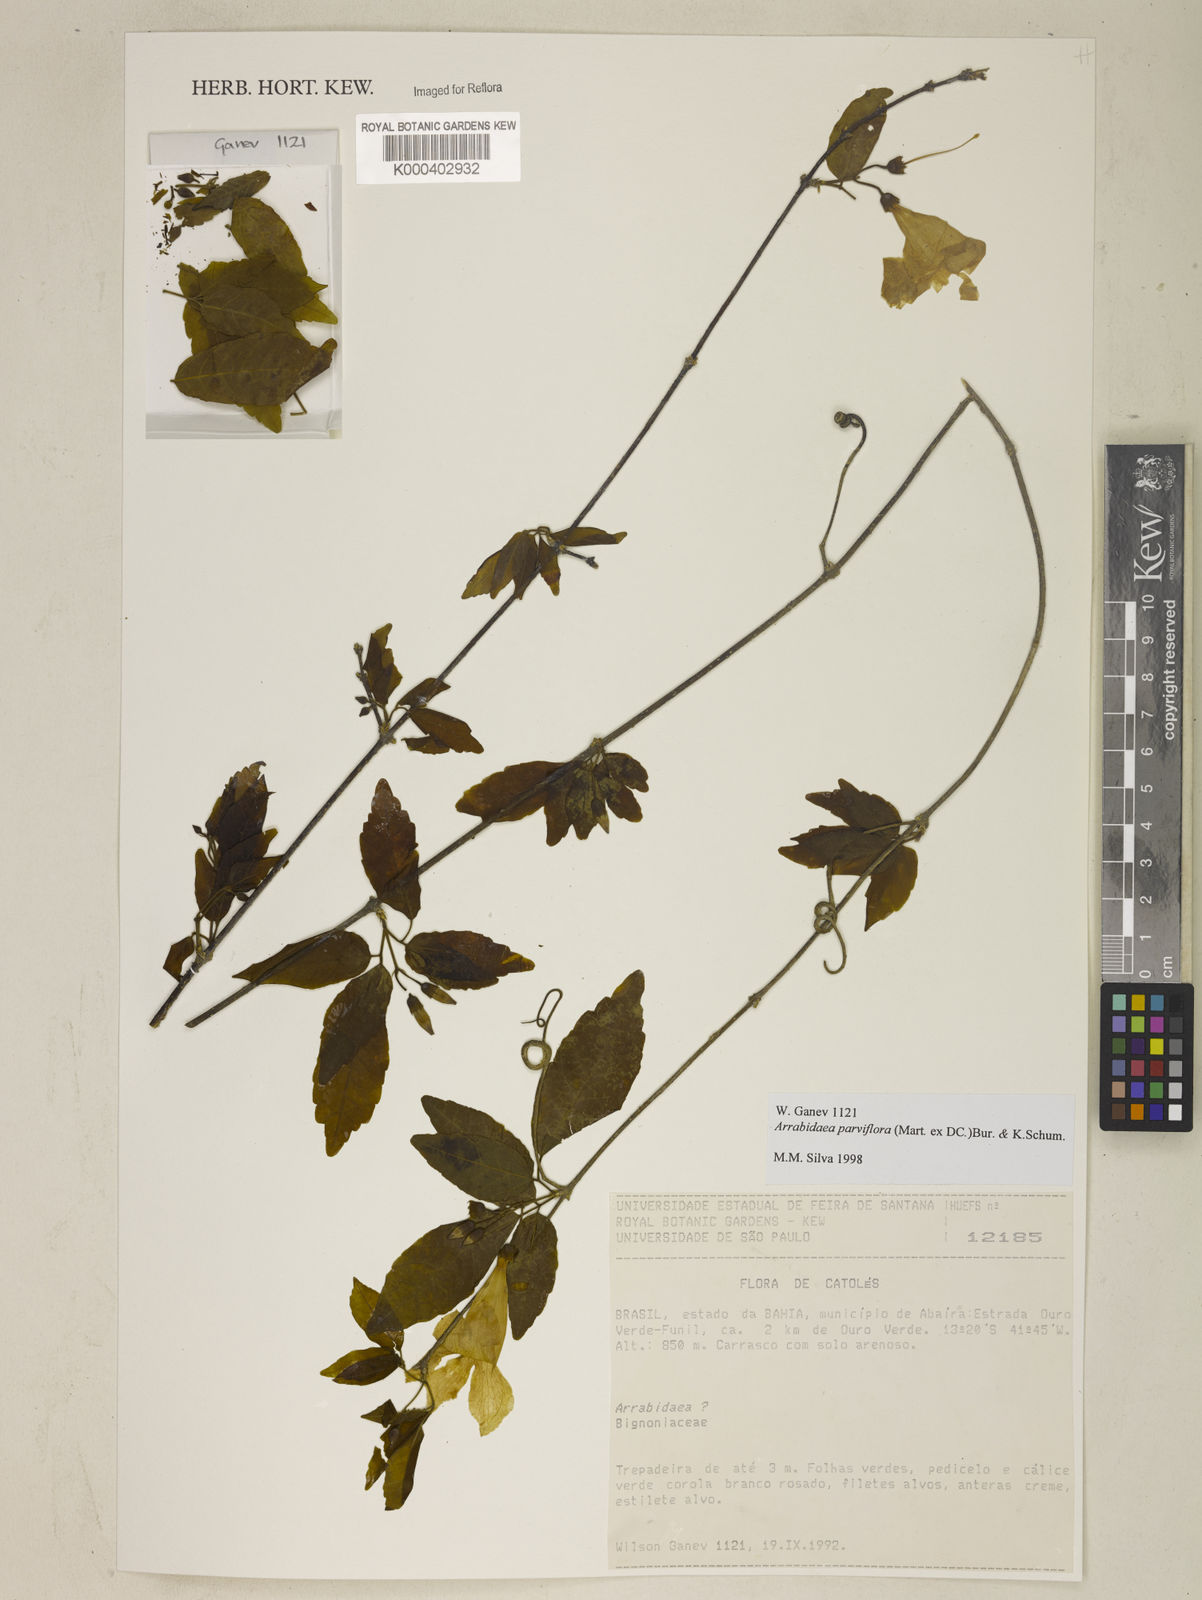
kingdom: Plantae
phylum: Tracheophyta
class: Magnoliopsida
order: Lamiales
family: Bignoniaceae
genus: Tanaecium
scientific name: Tanaecium parviflorum
